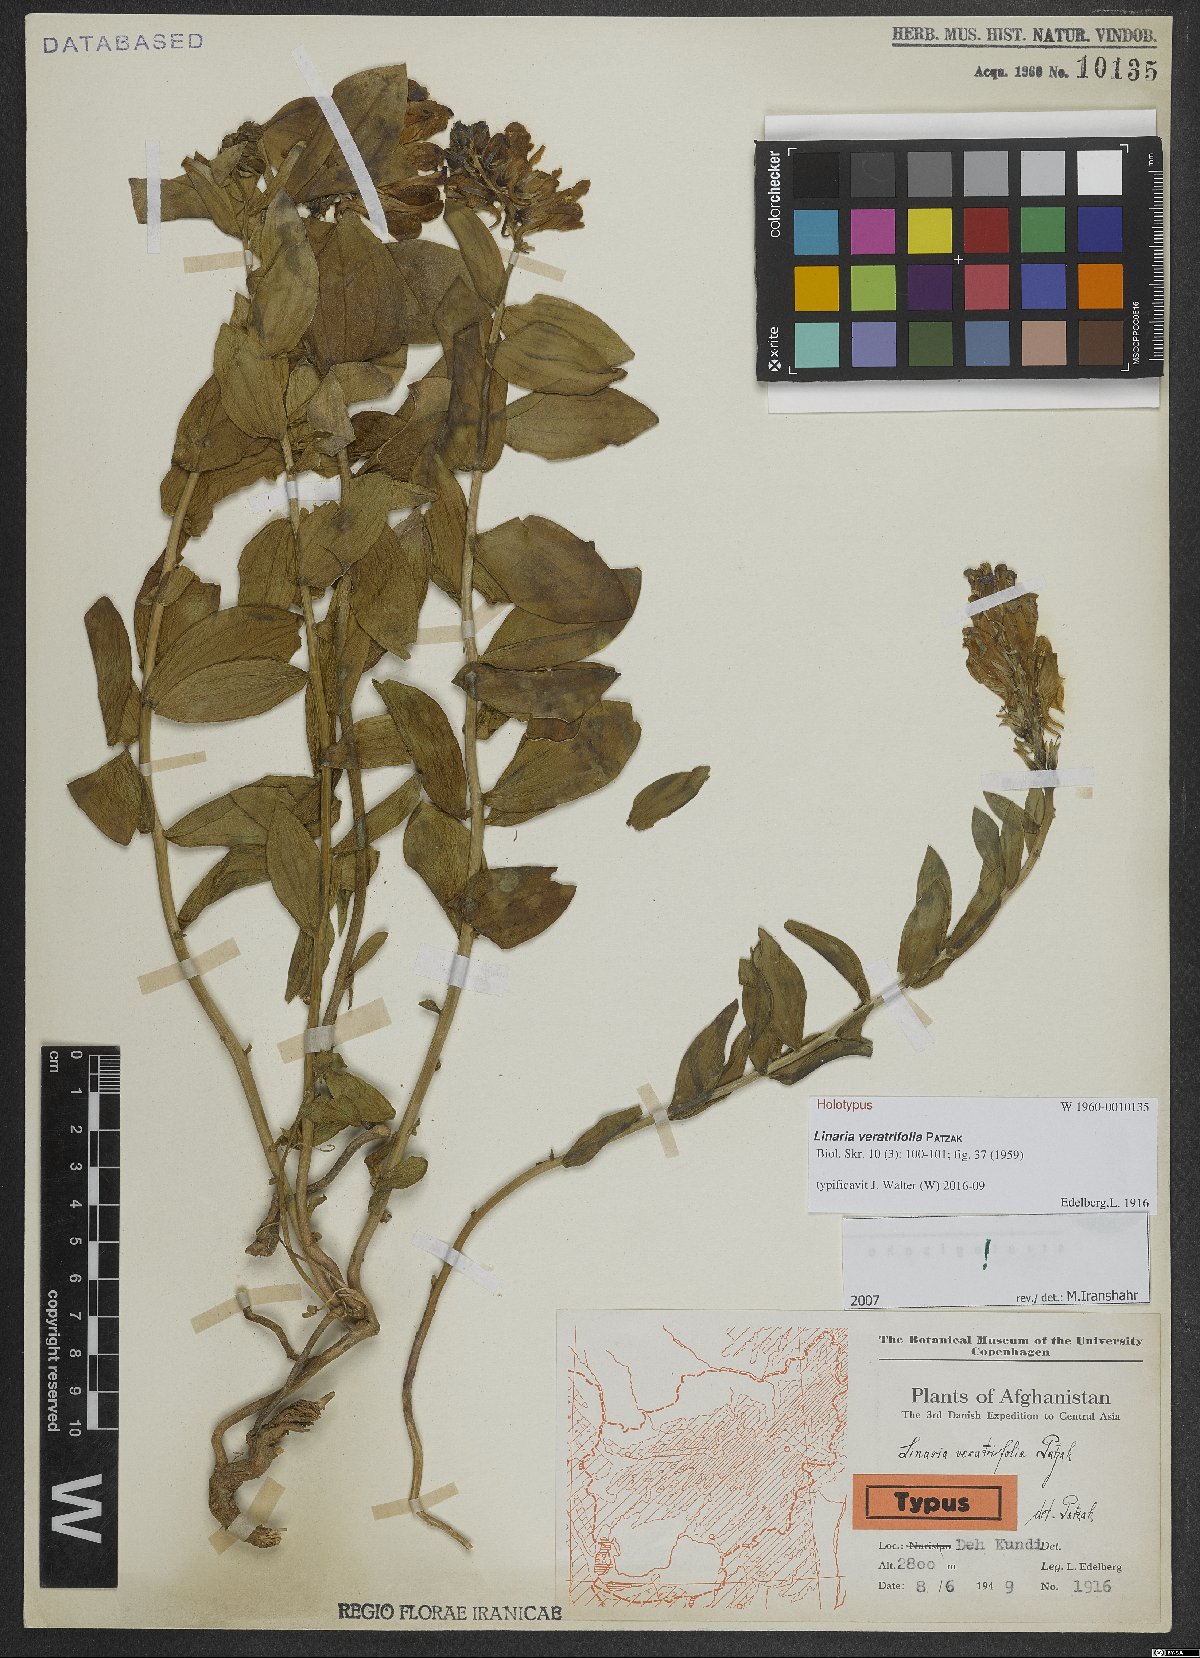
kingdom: Plantae
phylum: Tracheophyta
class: Magnoliopsida
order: Lamiales
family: Plantaginaceae
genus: Linaria
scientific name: Linaria veratrifolia
